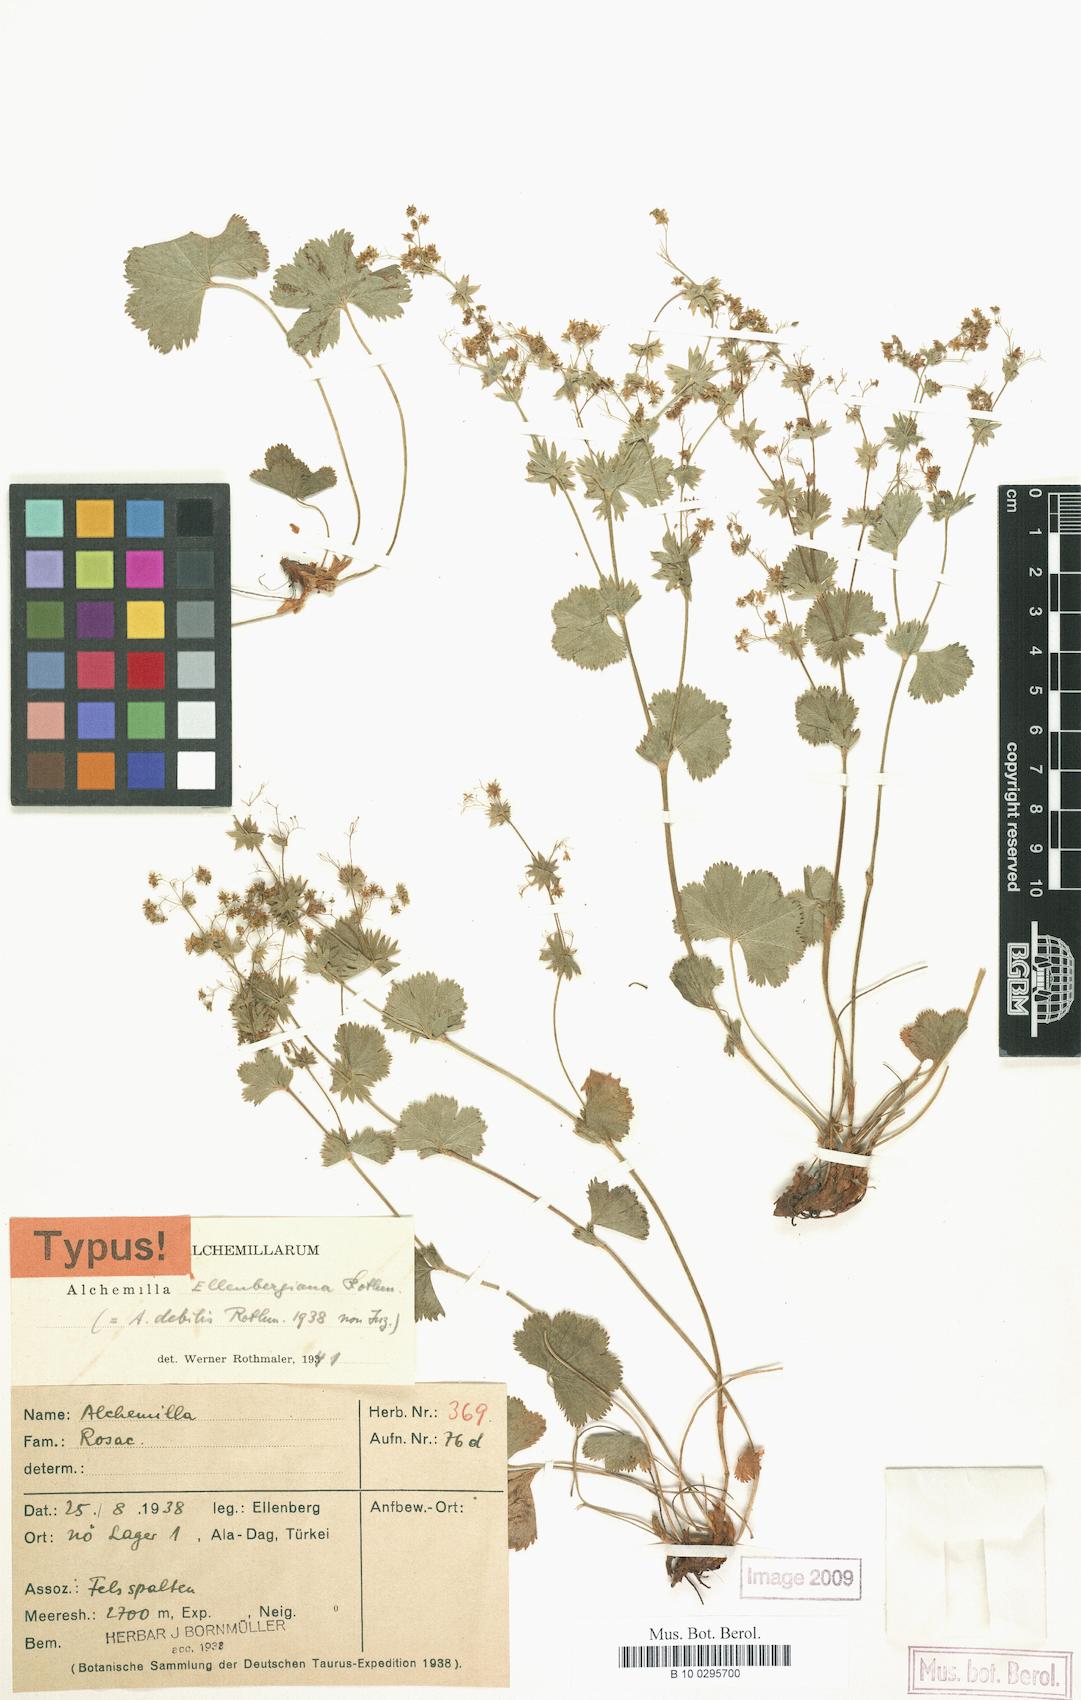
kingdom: Plantae
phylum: Tracheophyta
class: Magnoliopsida
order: Rosales
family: Rosaceae
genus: Alchemilla
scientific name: Alchemilla ellenbergiana
